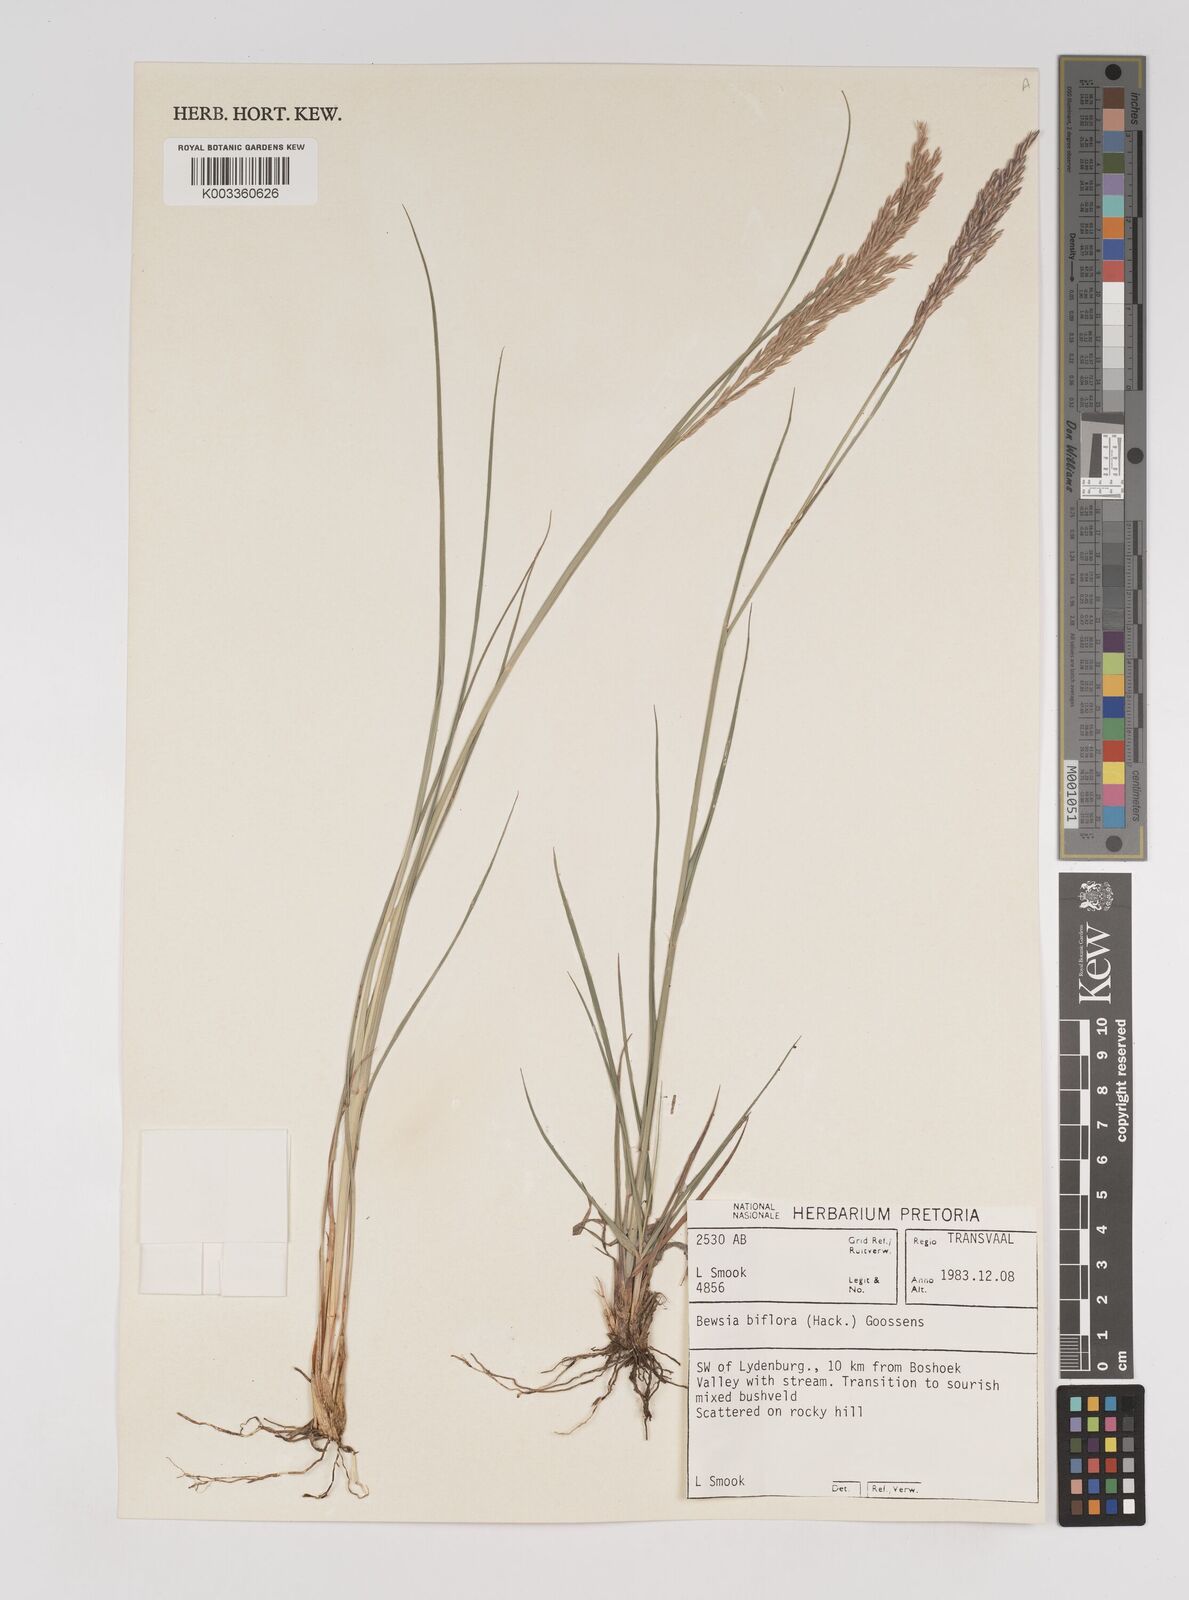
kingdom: Plantae
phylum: Tracheophyta
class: Liliopsida
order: Poales
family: Poaceae
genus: Bewsia
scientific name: Bewsia biflora
